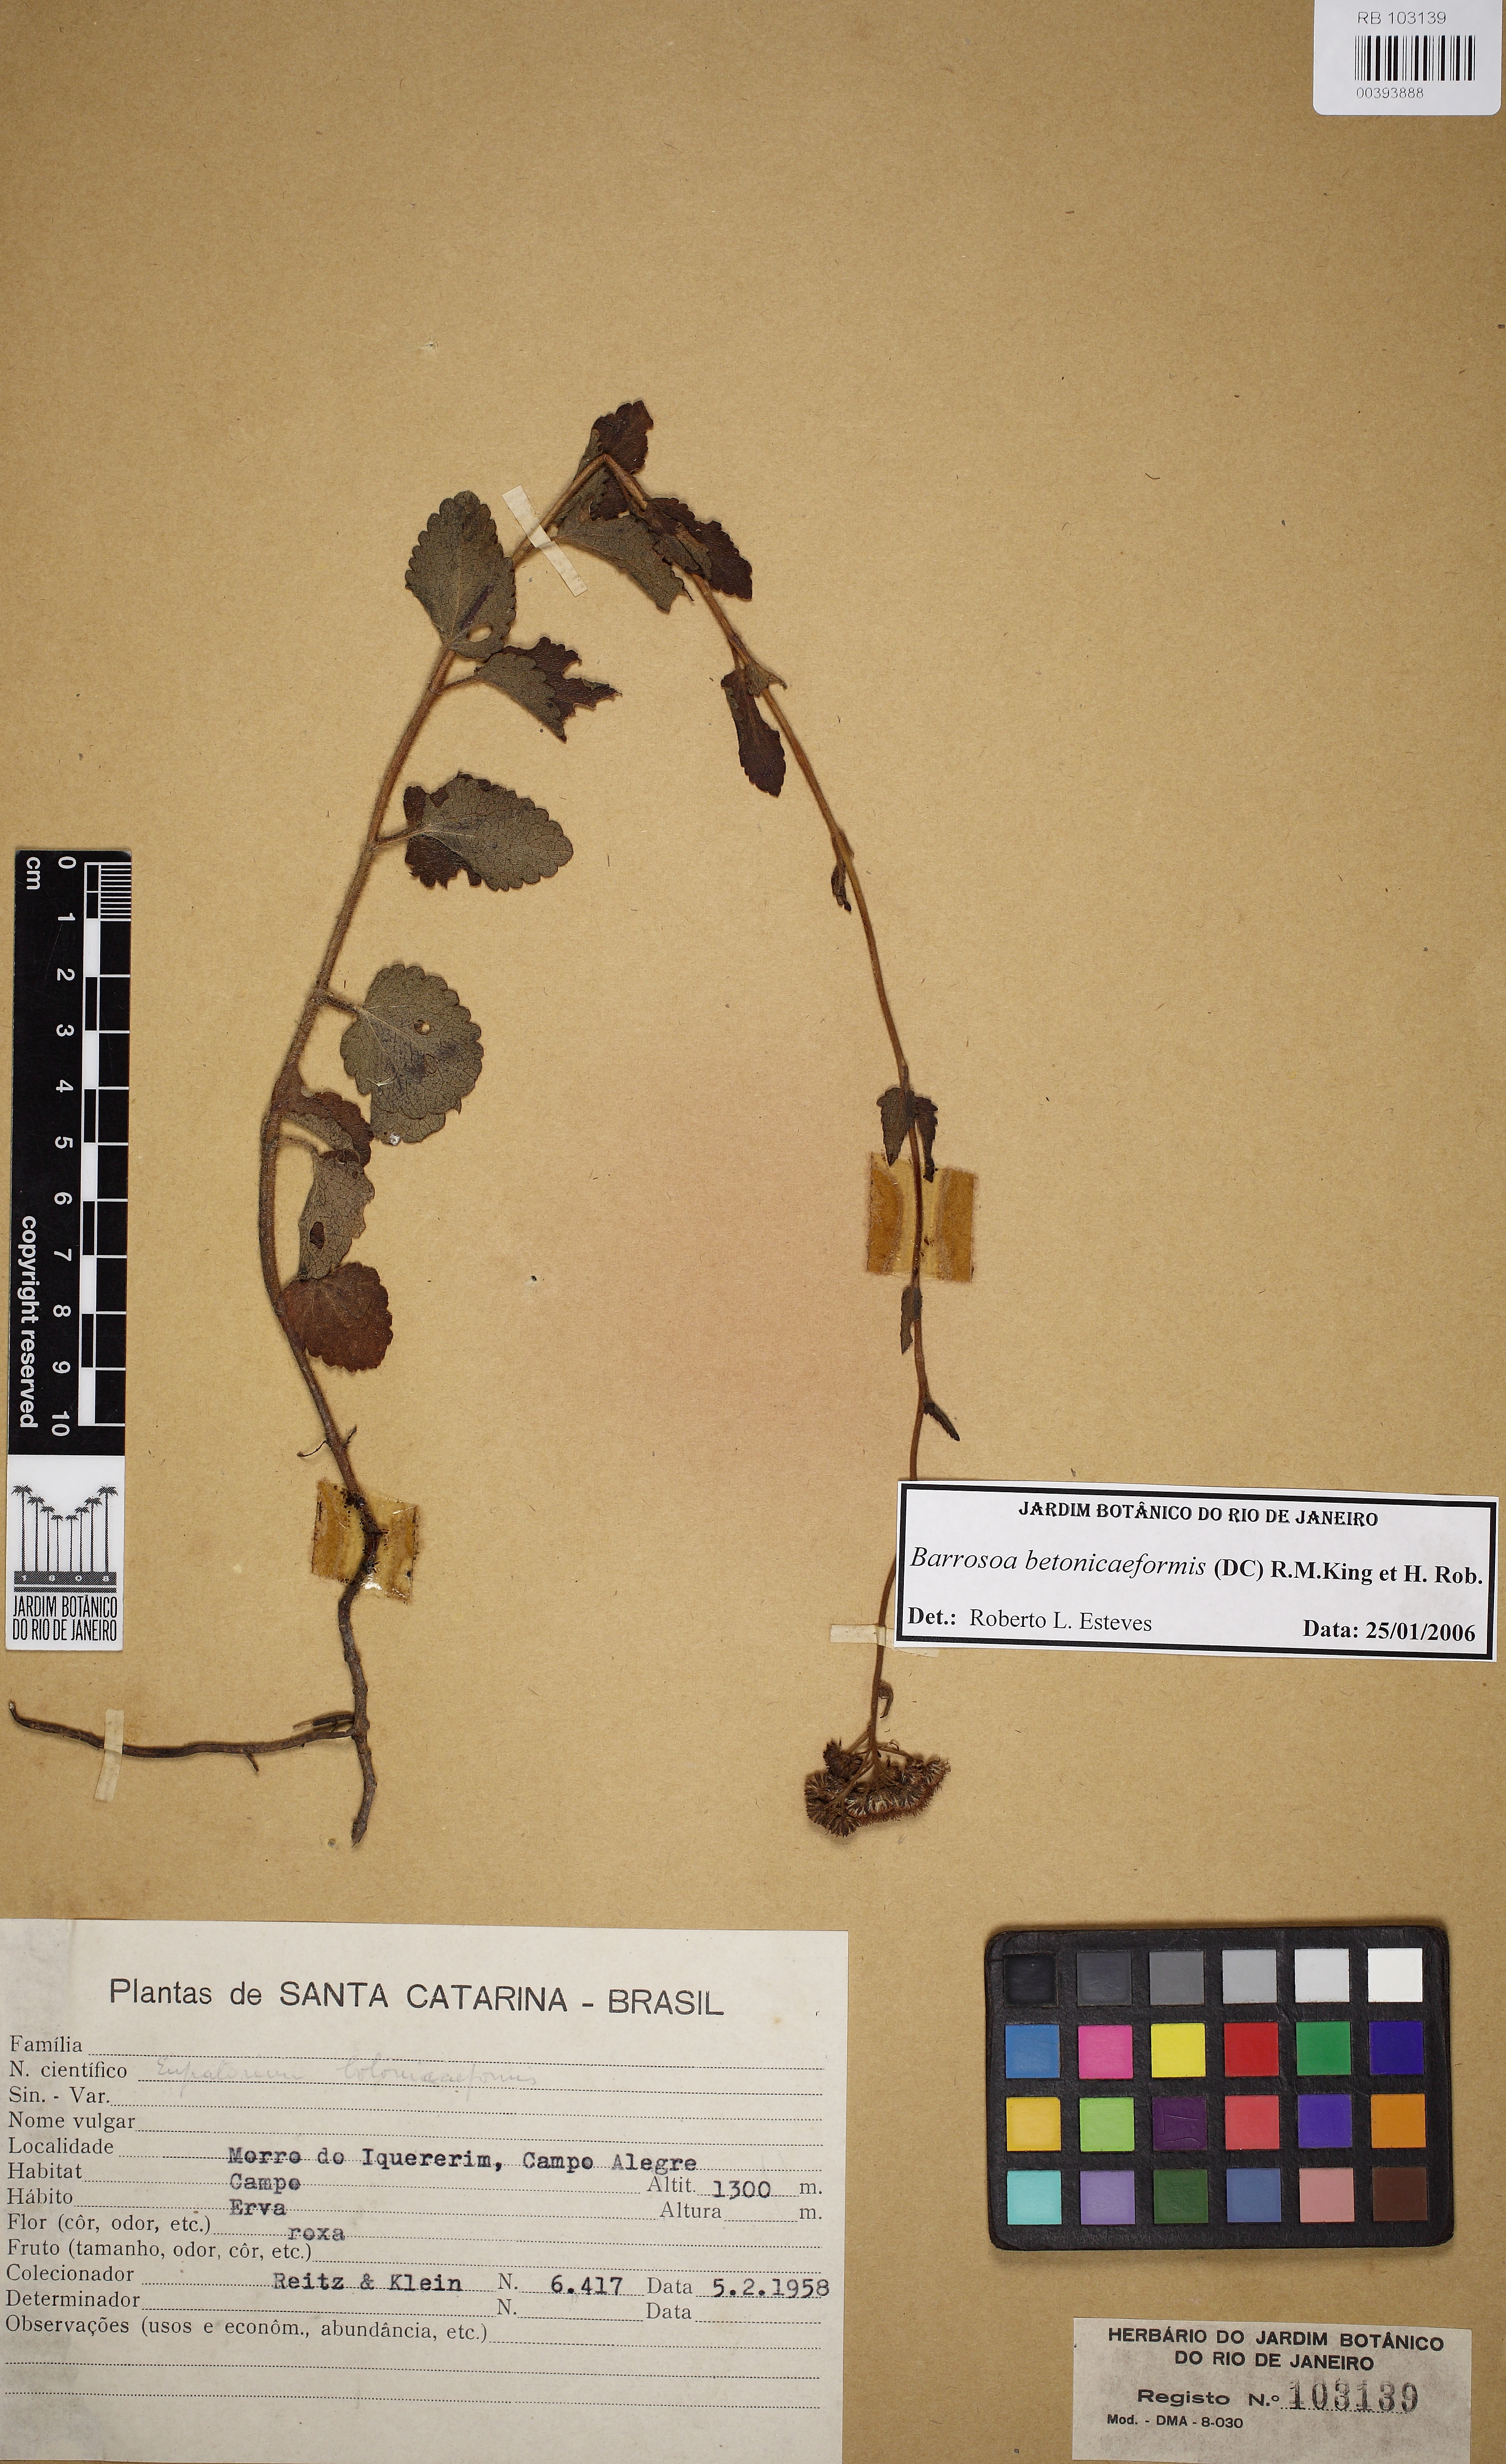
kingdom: Plantae
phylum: Tracheophyta
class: Magnoliopsida
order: Asterales
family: Asteraceae
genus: Barrosoa
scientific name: Barrosoa betoniciformis
